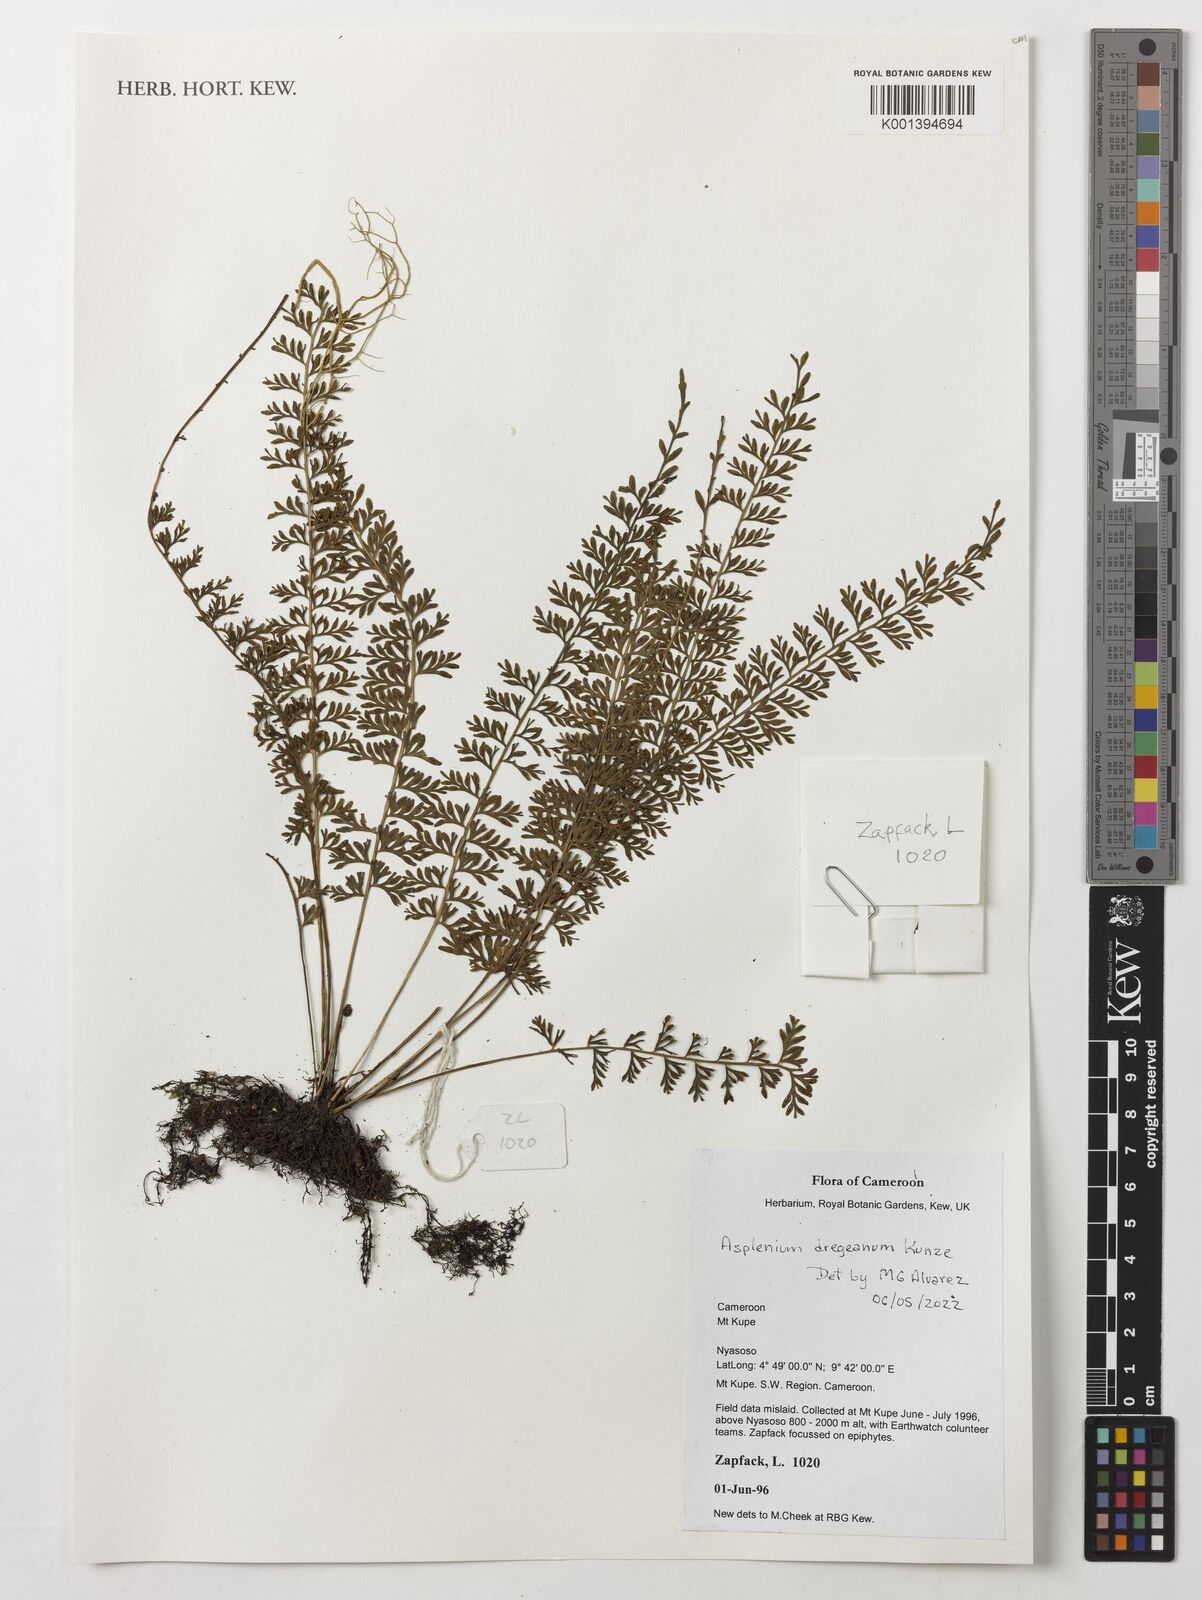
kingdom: Plantae
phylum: Tracheophyta
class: Polypodiopsida
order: Polypodiales
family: Aspleniaceae
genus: Asplenium
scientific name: Asplenium dregeanum
